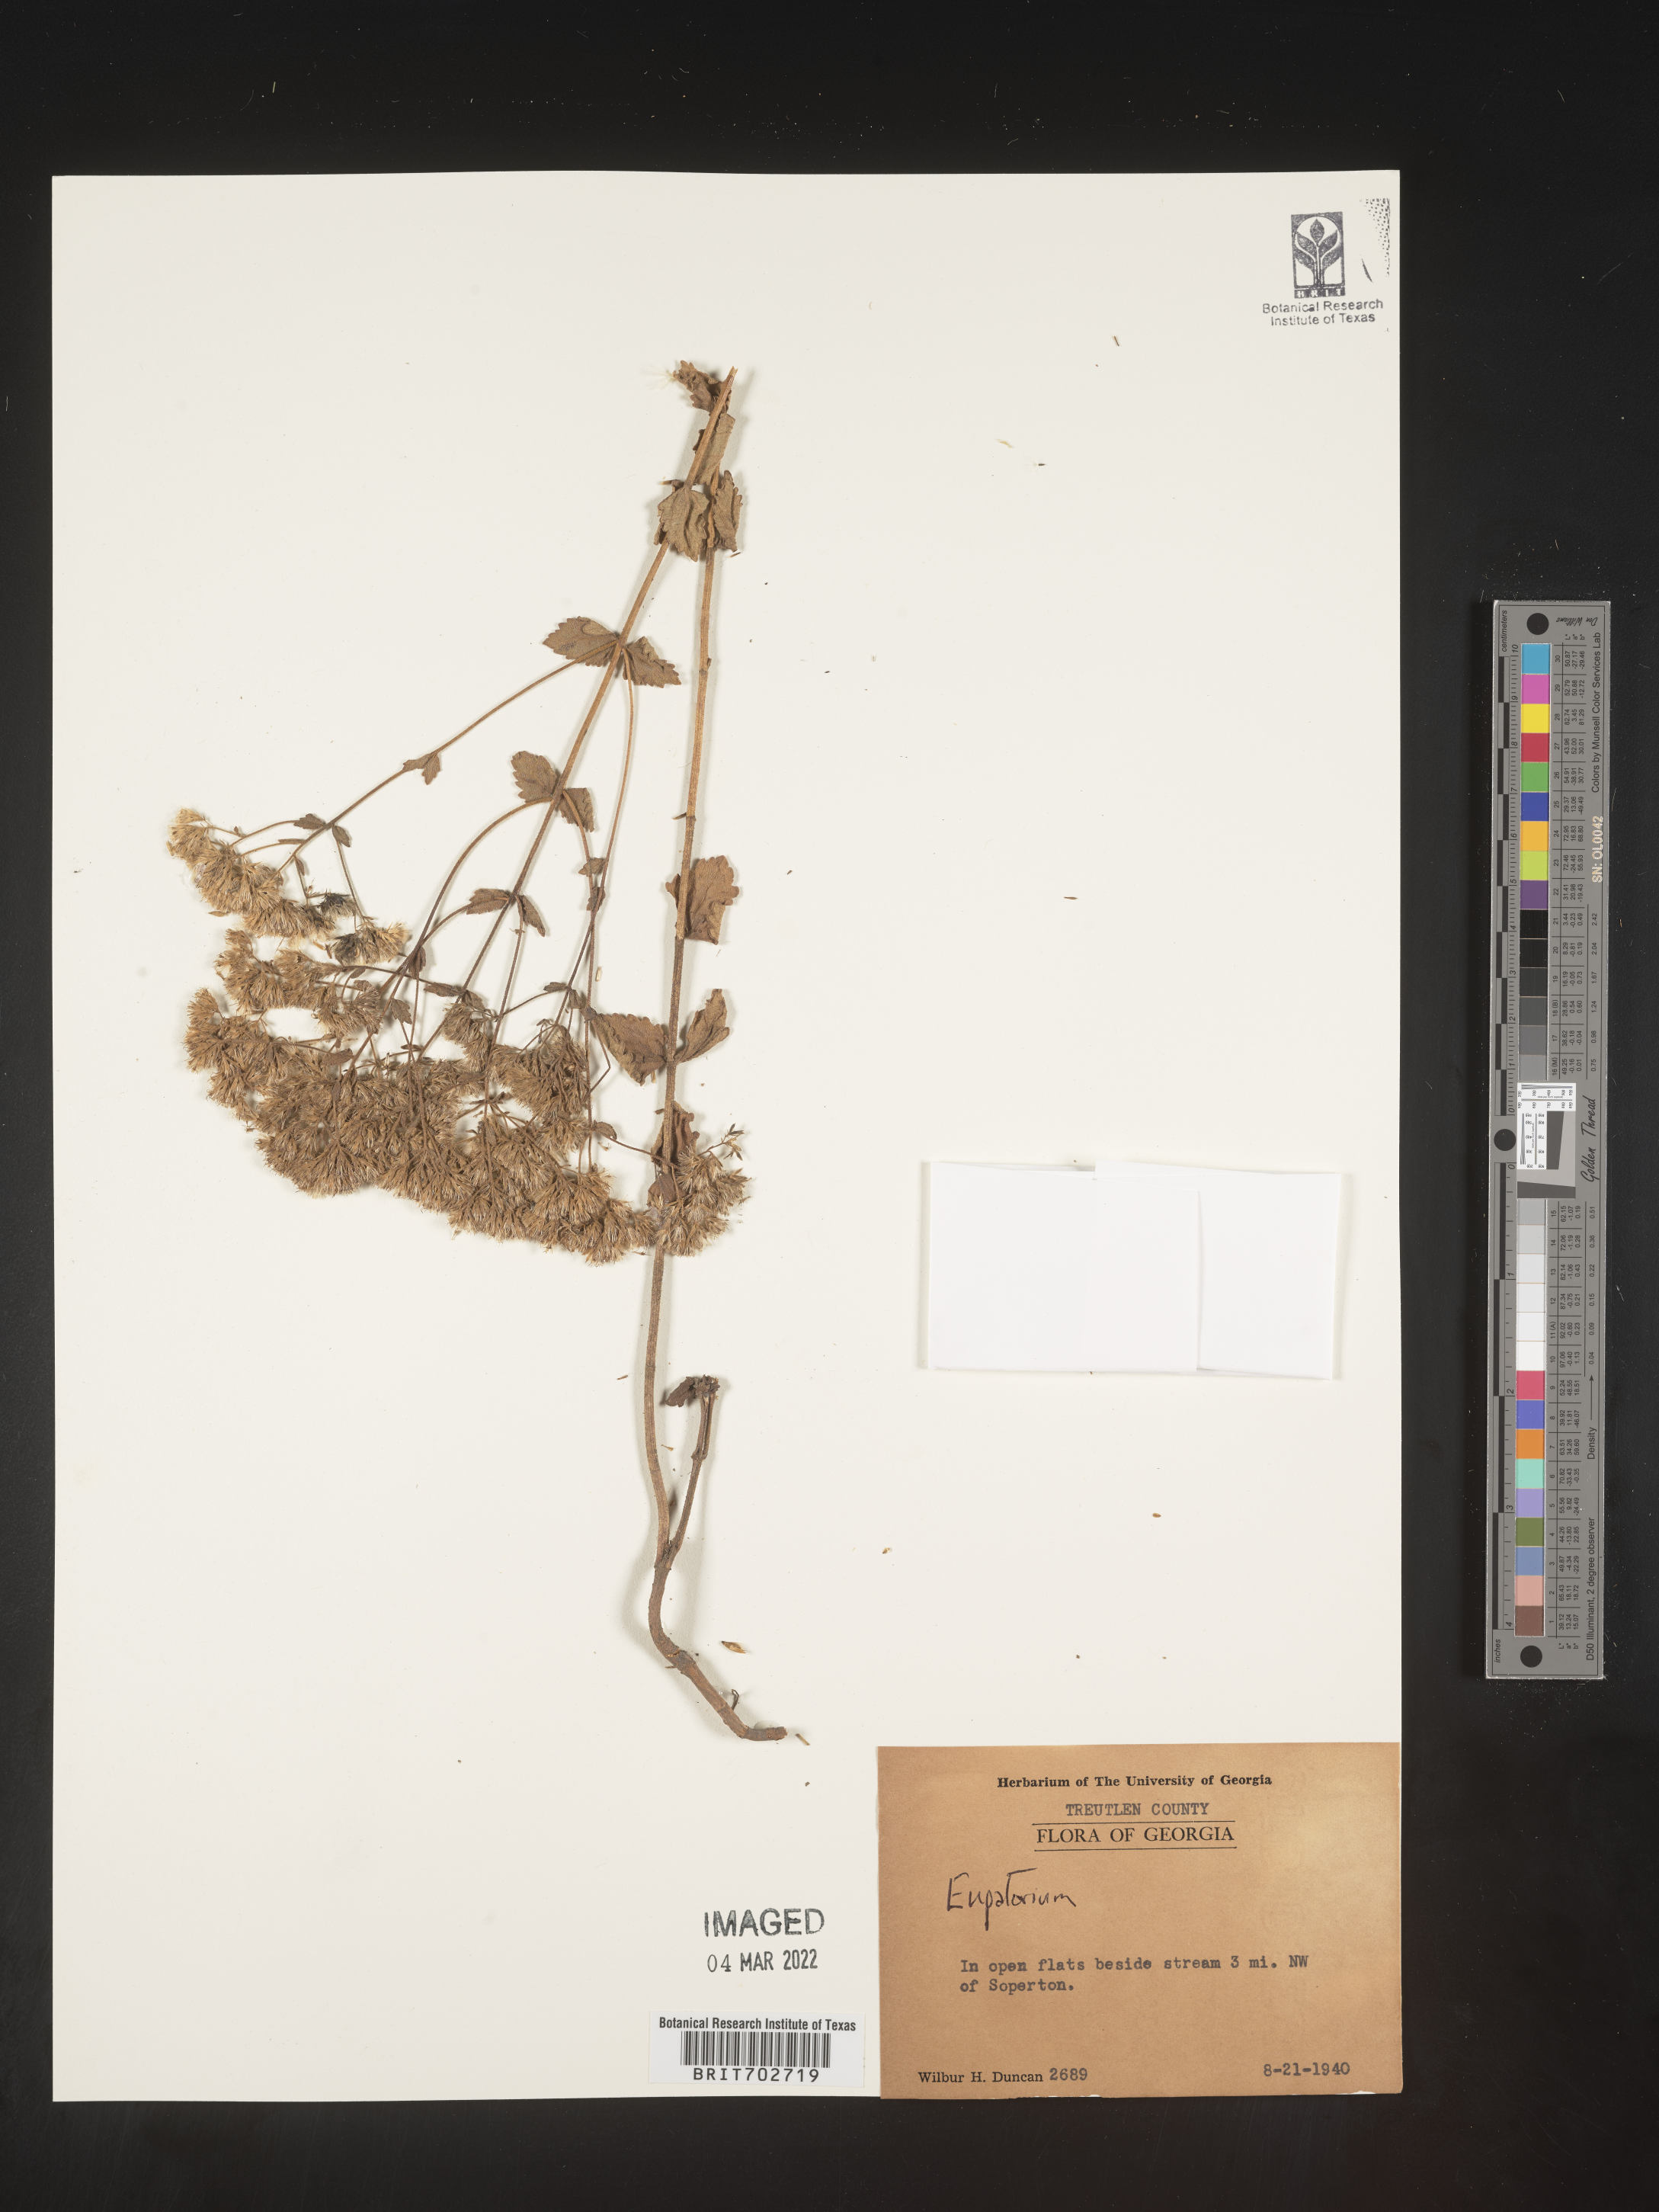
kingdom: Plantae
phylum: Tracheophyta
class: Magnoliopsida
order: Asterales
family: Asteraceae
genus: Eupatorium
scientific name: Eupatorium
